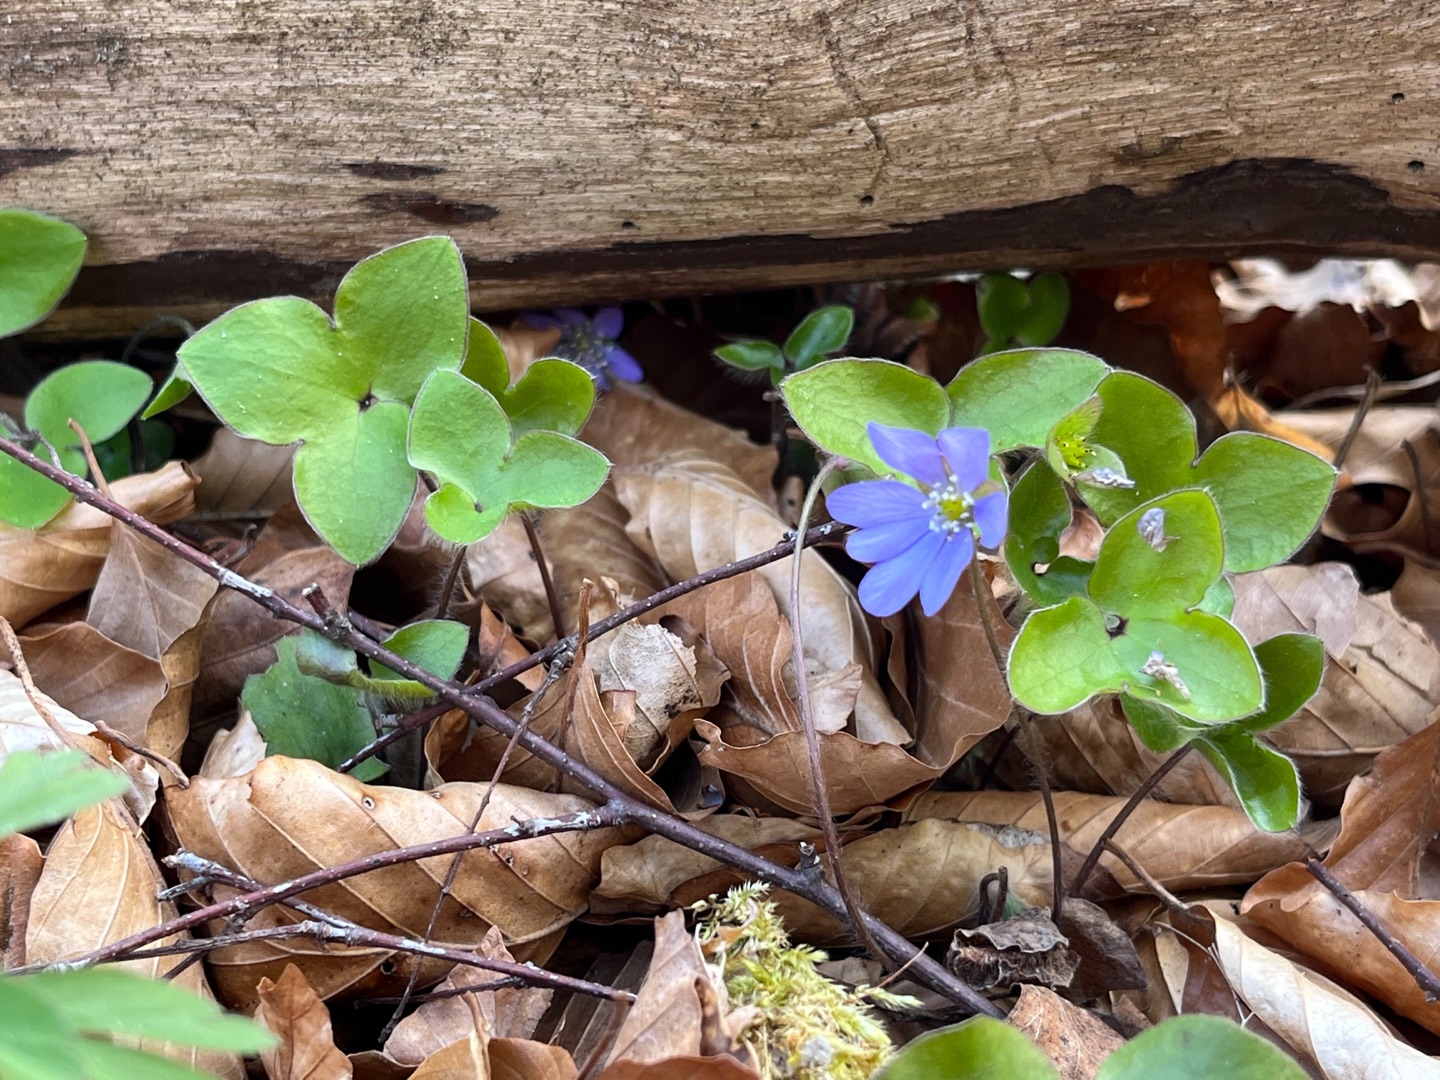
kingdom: Plantae
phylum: Tracheophyta
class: Magnoliopsida
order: Ranunculales
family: Ranunculaceae
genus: Hepatica
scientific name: Hepatica nobilis
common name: Blå anemone
